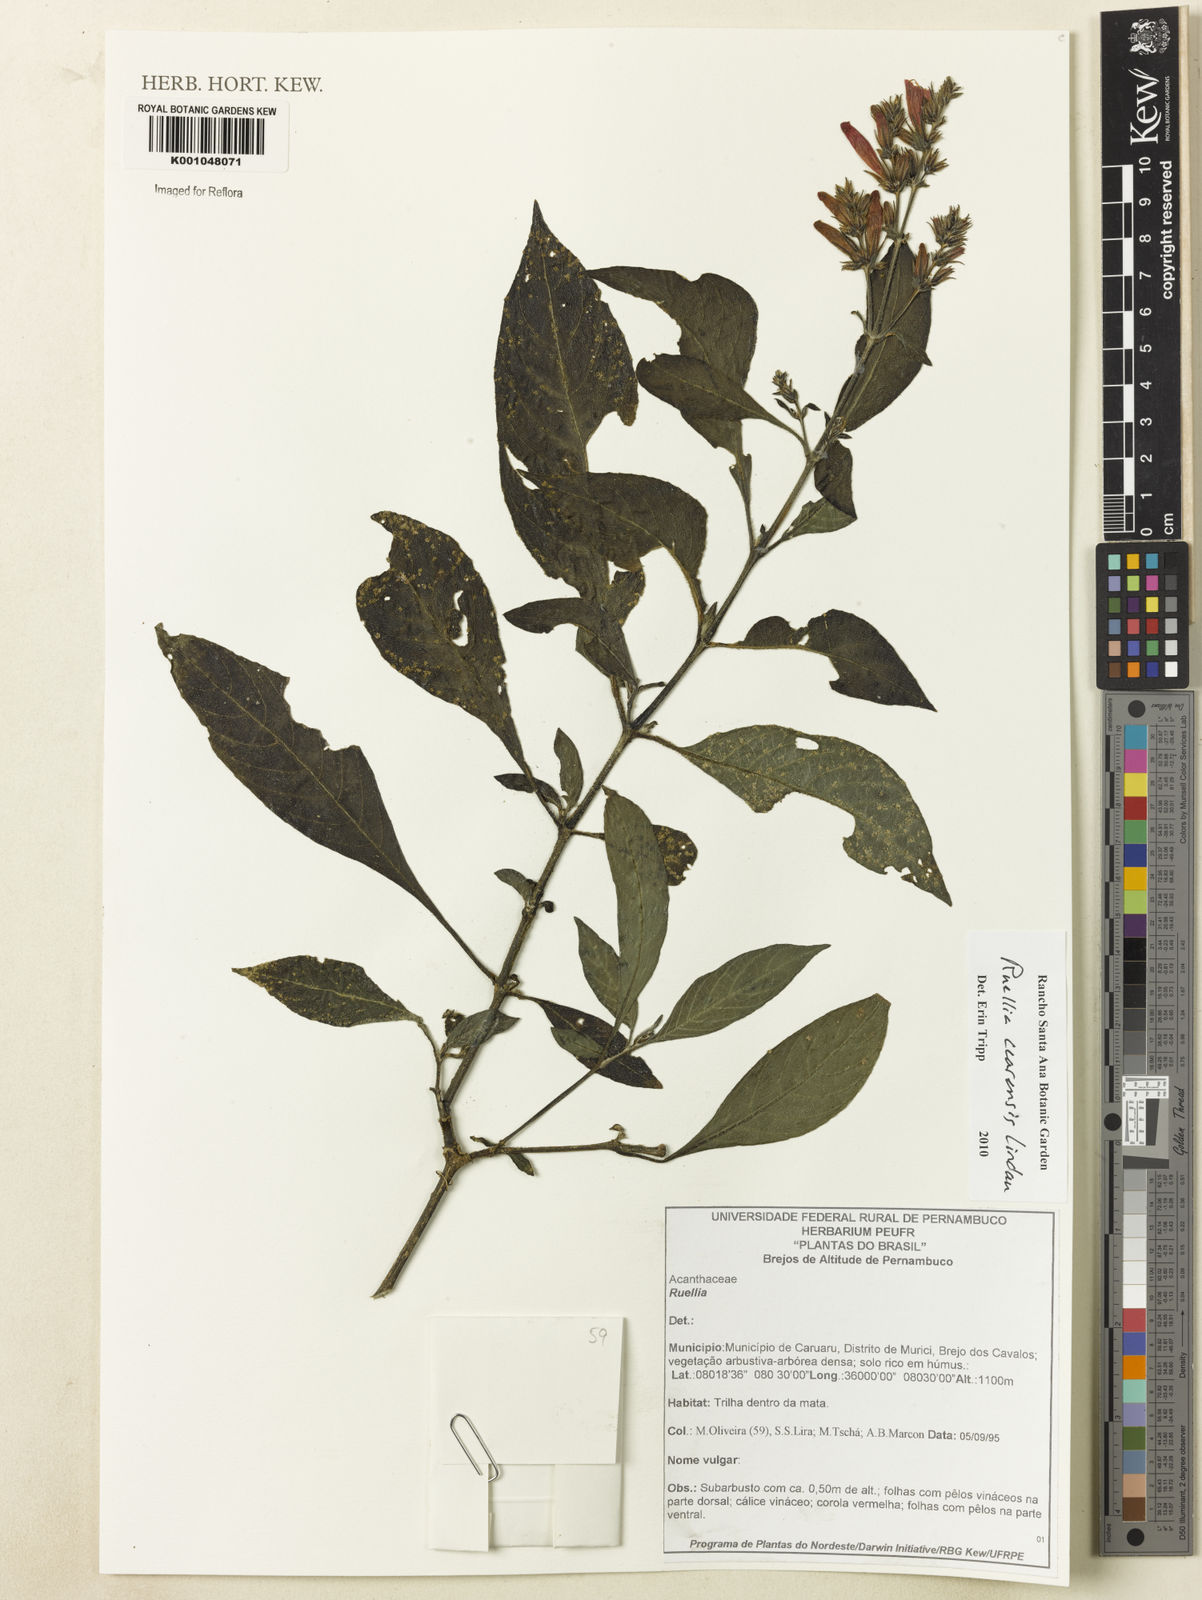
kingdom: Plantae
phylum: Tracheophyta
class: Magnoliopsida
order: Lamiales
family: Acanthaceae
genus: Ruellia
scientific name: Ruellia cearensis
